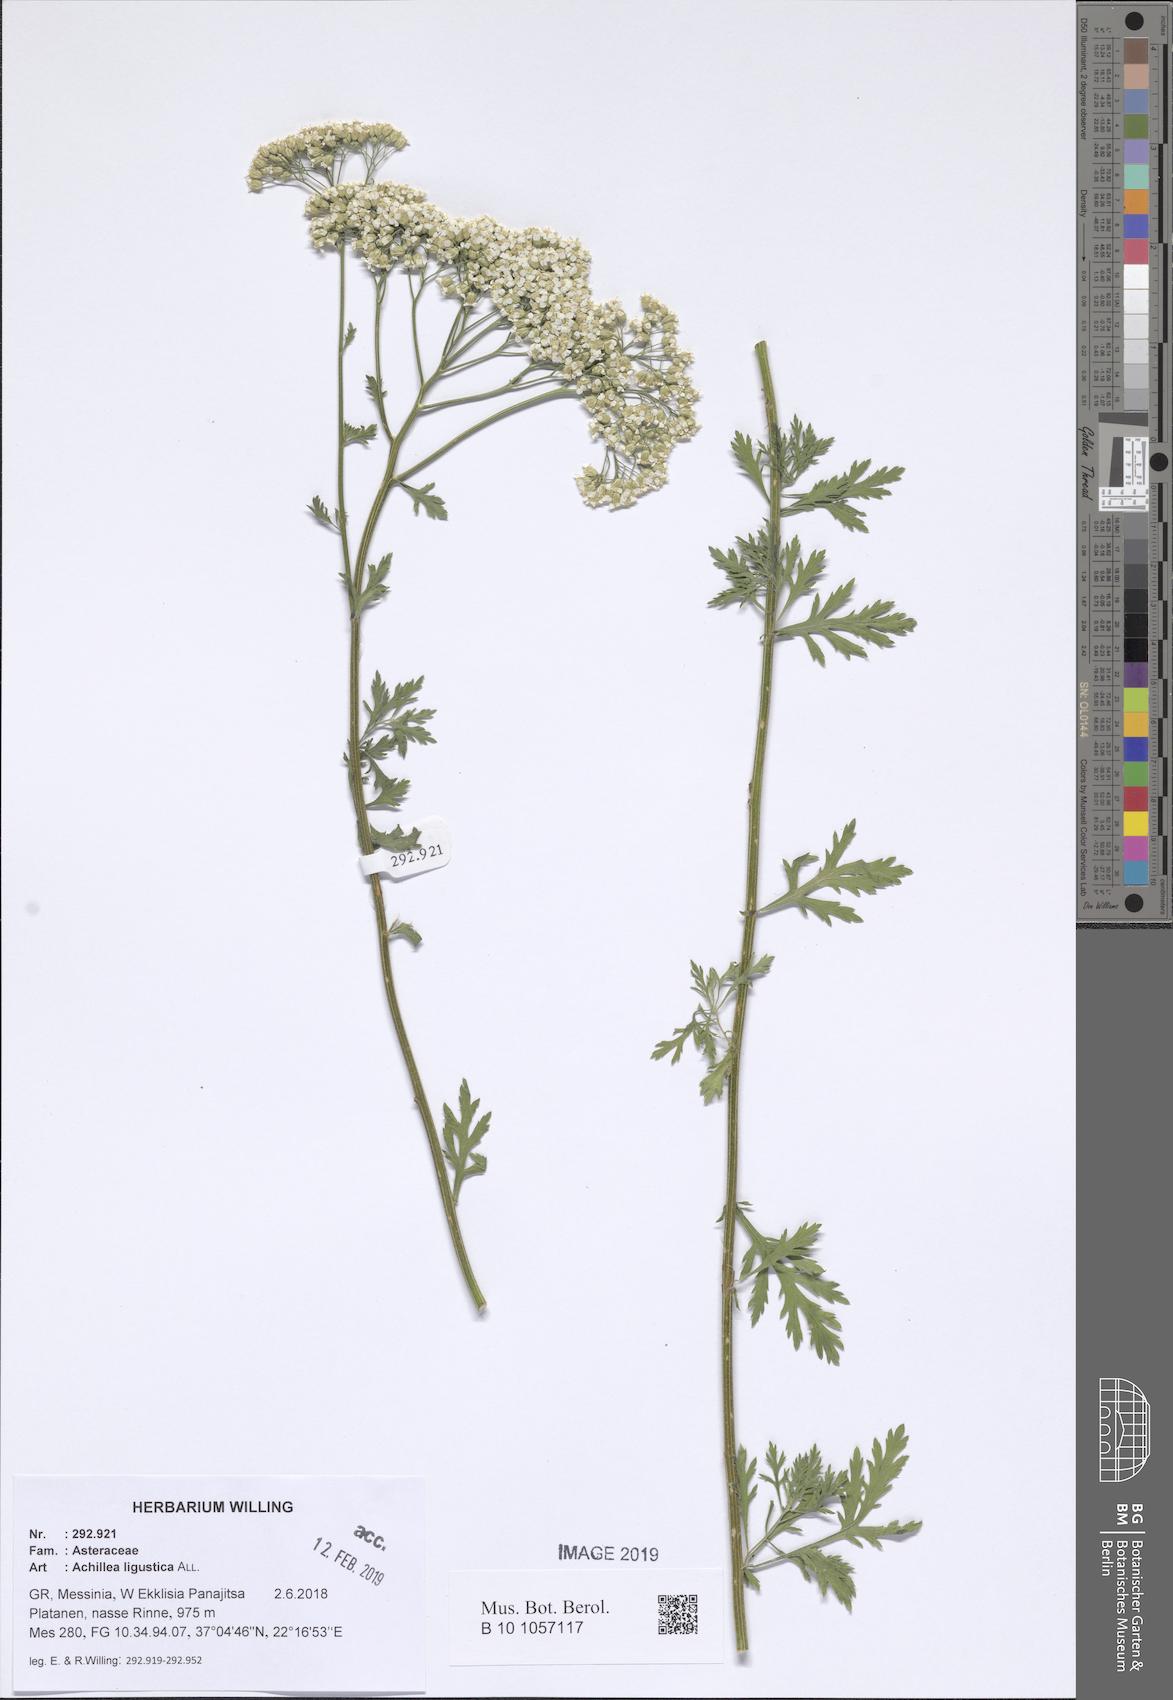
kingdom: Plantae
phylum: Tracheophyta
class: Magnoliopsida
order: Asterales
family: Asteraceae
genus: Achillea
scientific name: Achillea ligustica
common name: Southern yarrow
